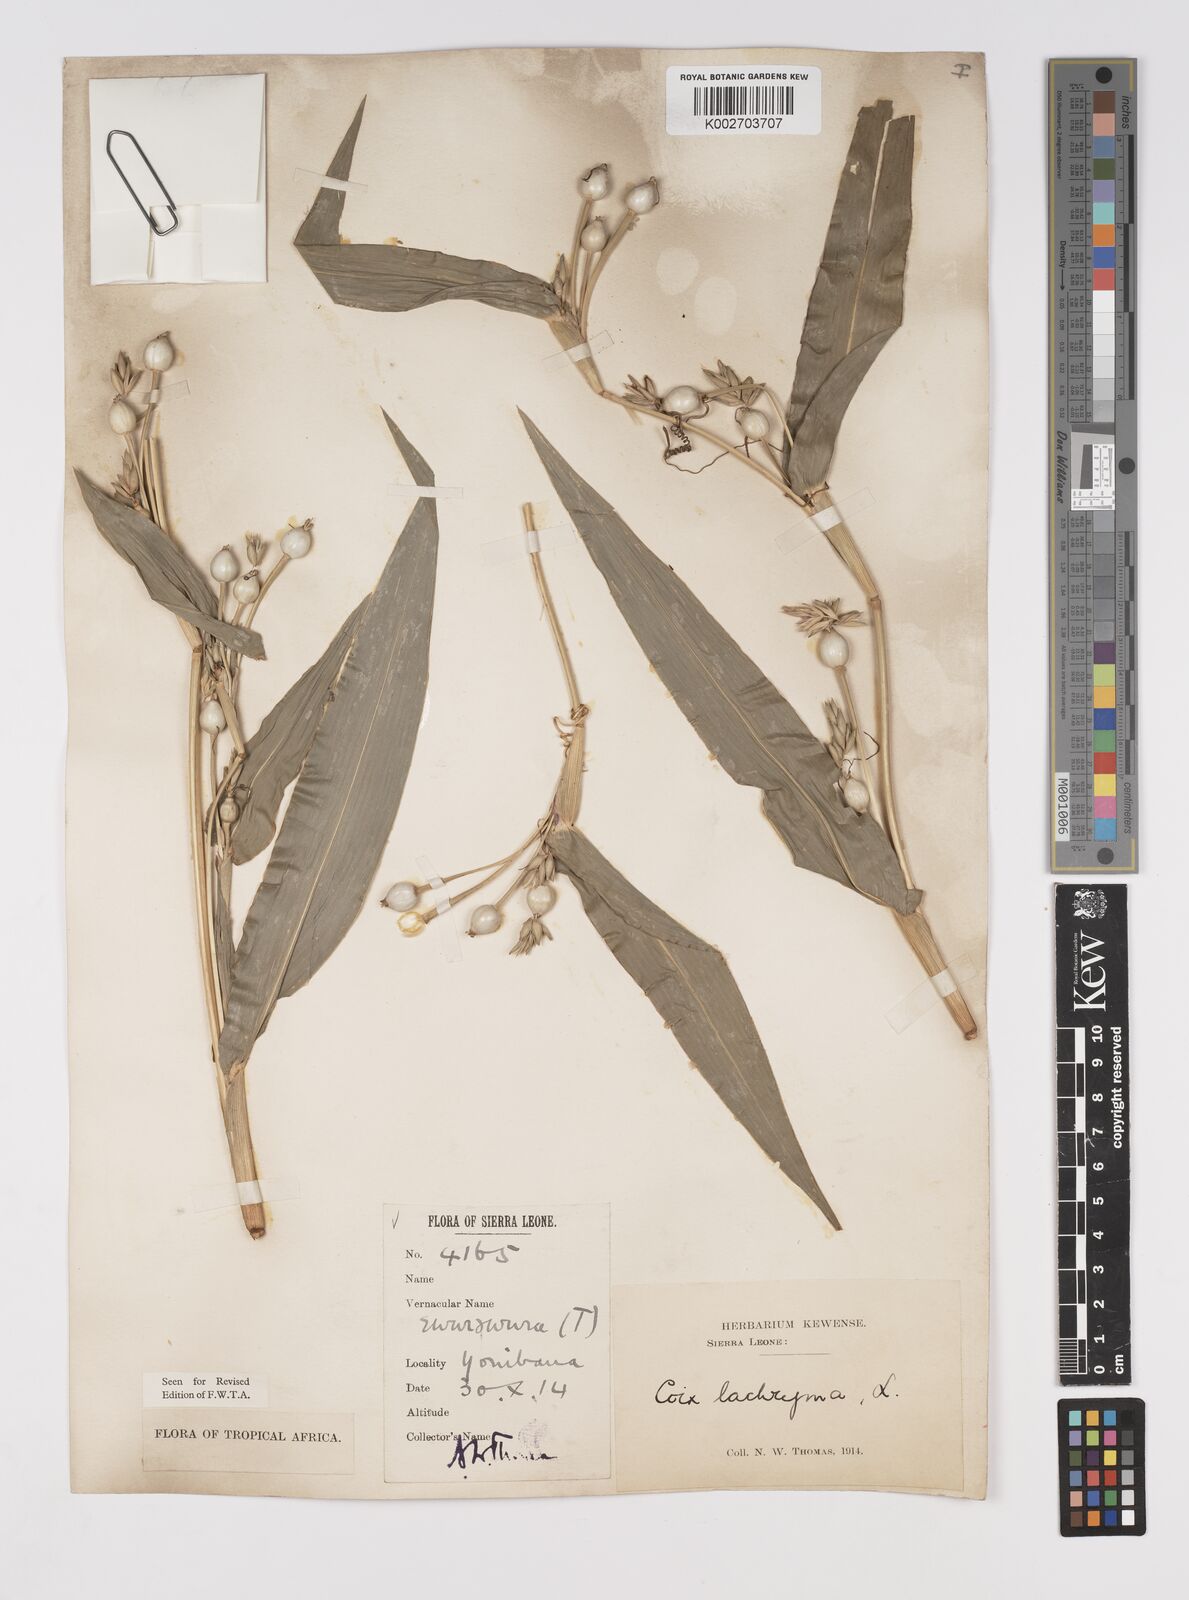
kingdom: Plantae
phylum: Tracheophyta
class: Liliopsida
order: Poales
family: Poaceae
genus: Coix
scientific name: Coix lacryma-jobi
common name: Job's tears
